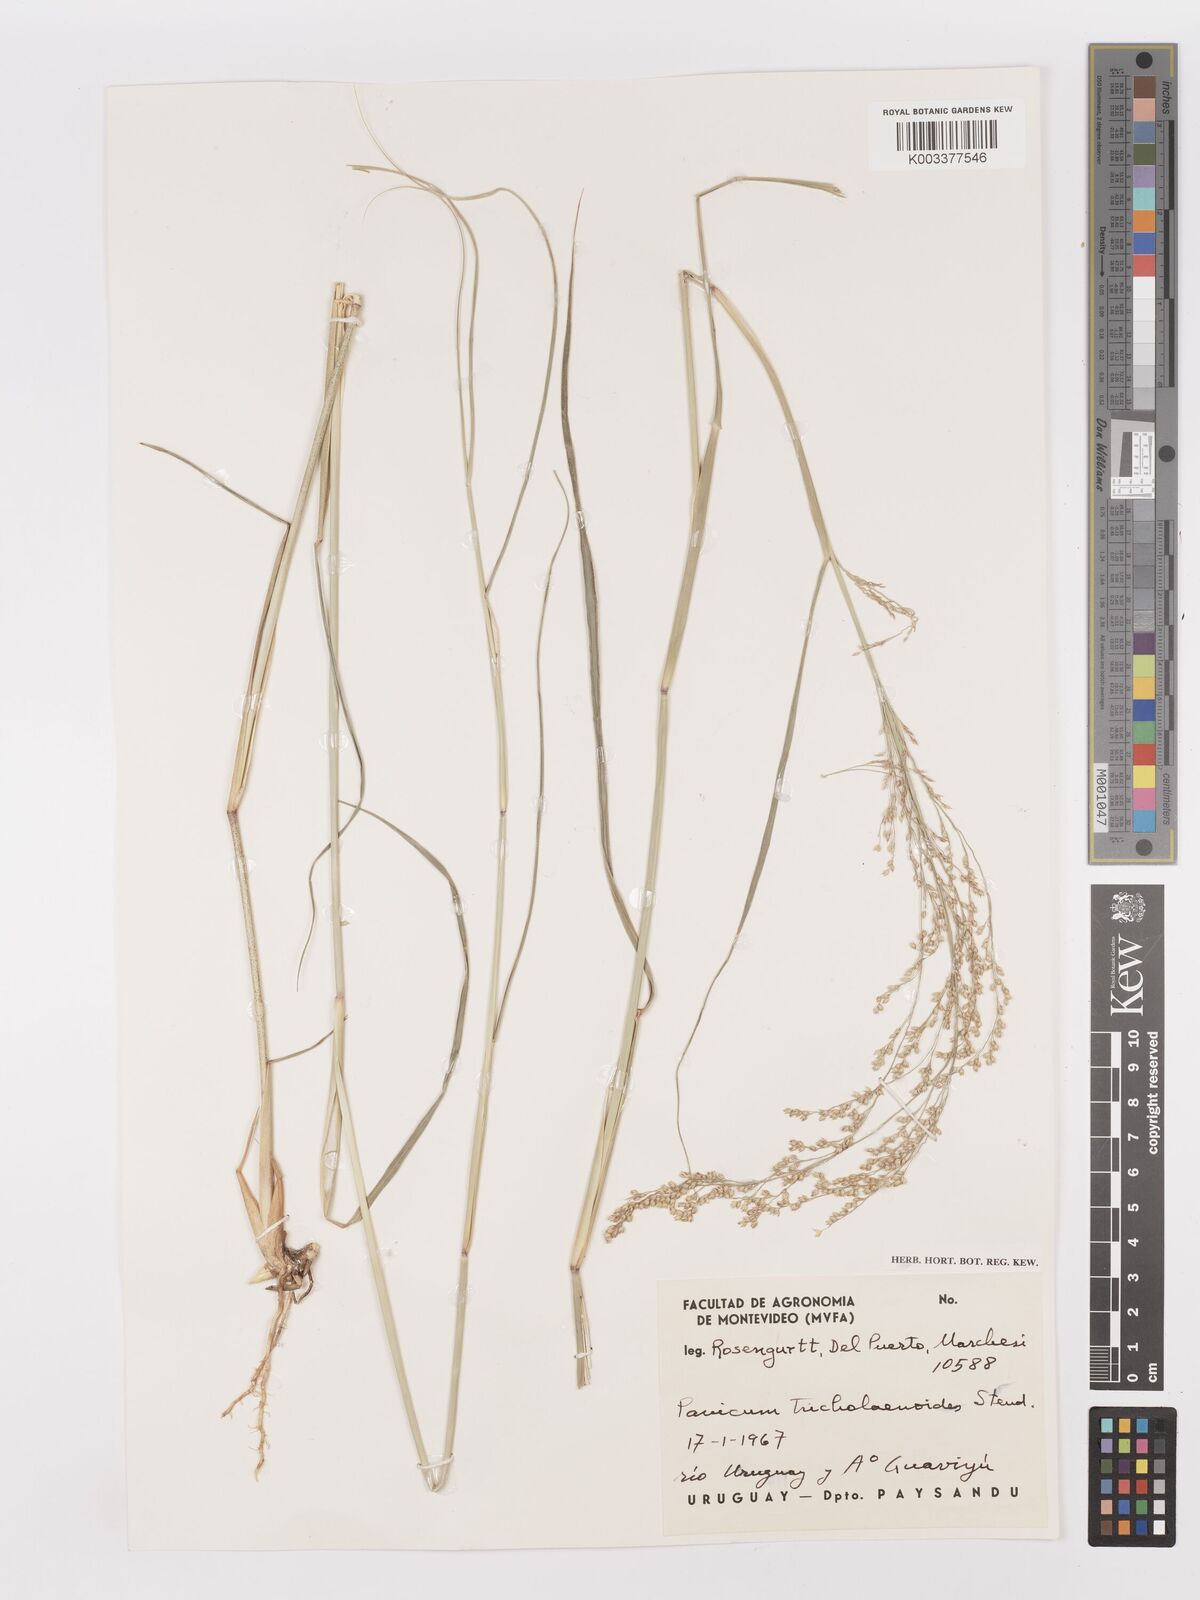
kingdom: Plantae
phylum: Tracheophyta
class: Liliopsida
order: Poales
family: Poaceae
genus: Panicum
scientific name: Panicum tricholaenoides
